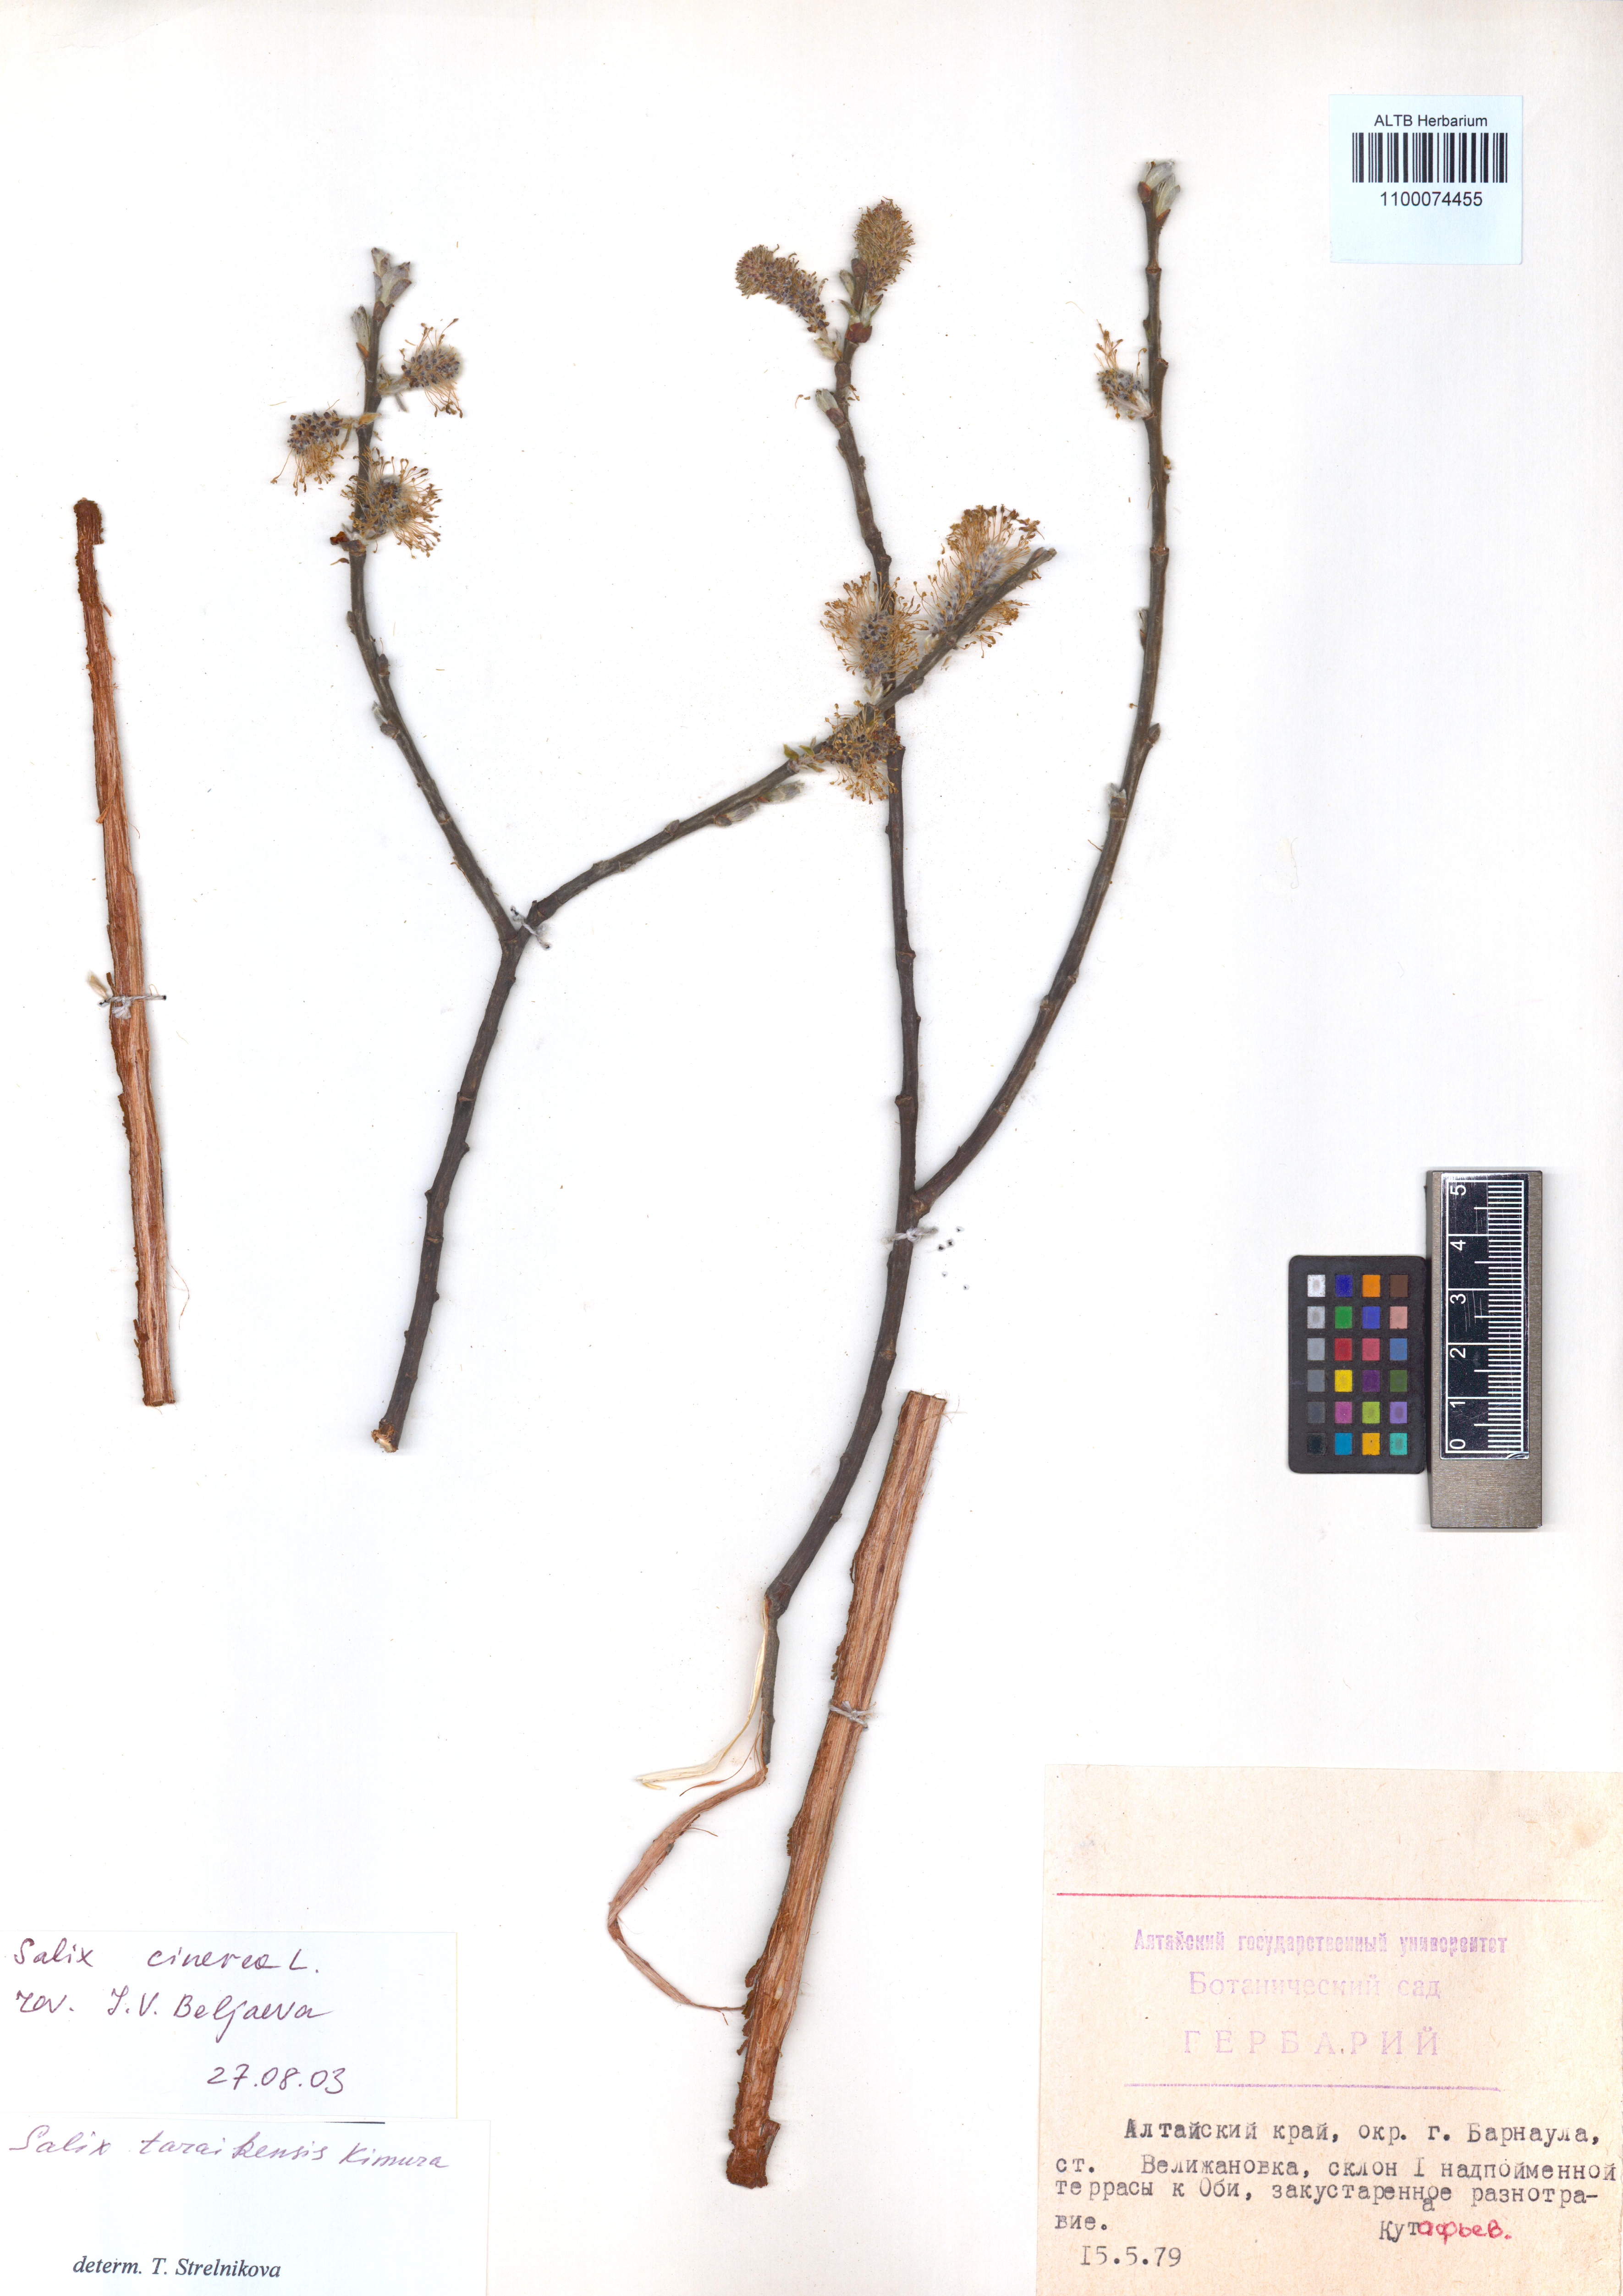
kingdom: Plantae
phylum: Tracheophyta
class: Magnoliopsida
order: Malpighiales
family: Salicaceae
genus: Salix
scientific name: Salix cinerea
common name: Common sallow
